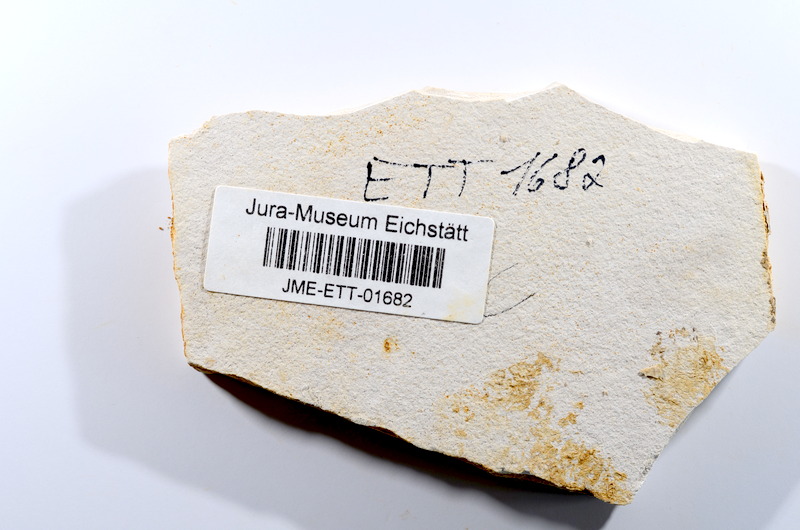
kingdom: Animalia
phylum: Chordata
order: Salmoniformes
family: Orthogonikleithridae
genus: Orthogonikleithrus
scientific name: Orthogonikleithrus hoelli
